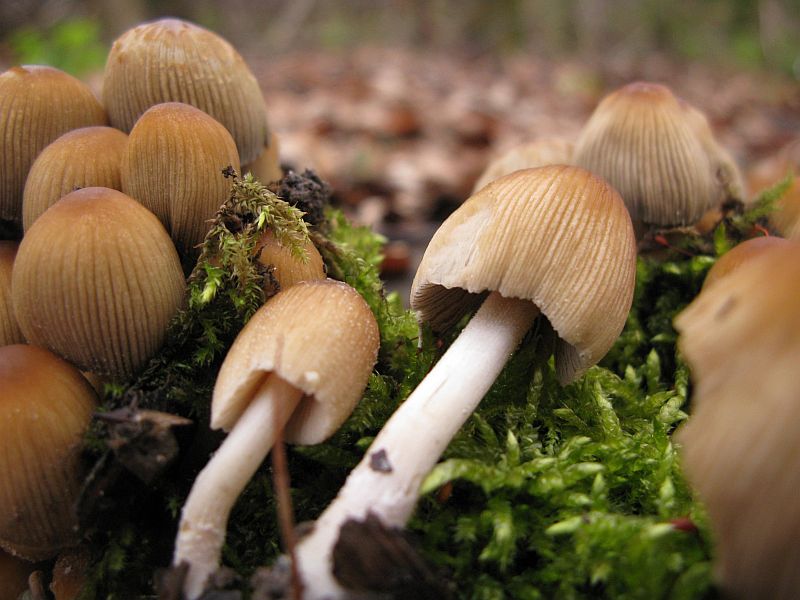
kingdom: Fungi
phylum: Basidiomycota
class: Agaricomycetes
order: Agaricales
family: Psathyrellaceae
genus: Coprinellus
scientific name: Coprinellus micaceus
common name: glimmer-blækhat
